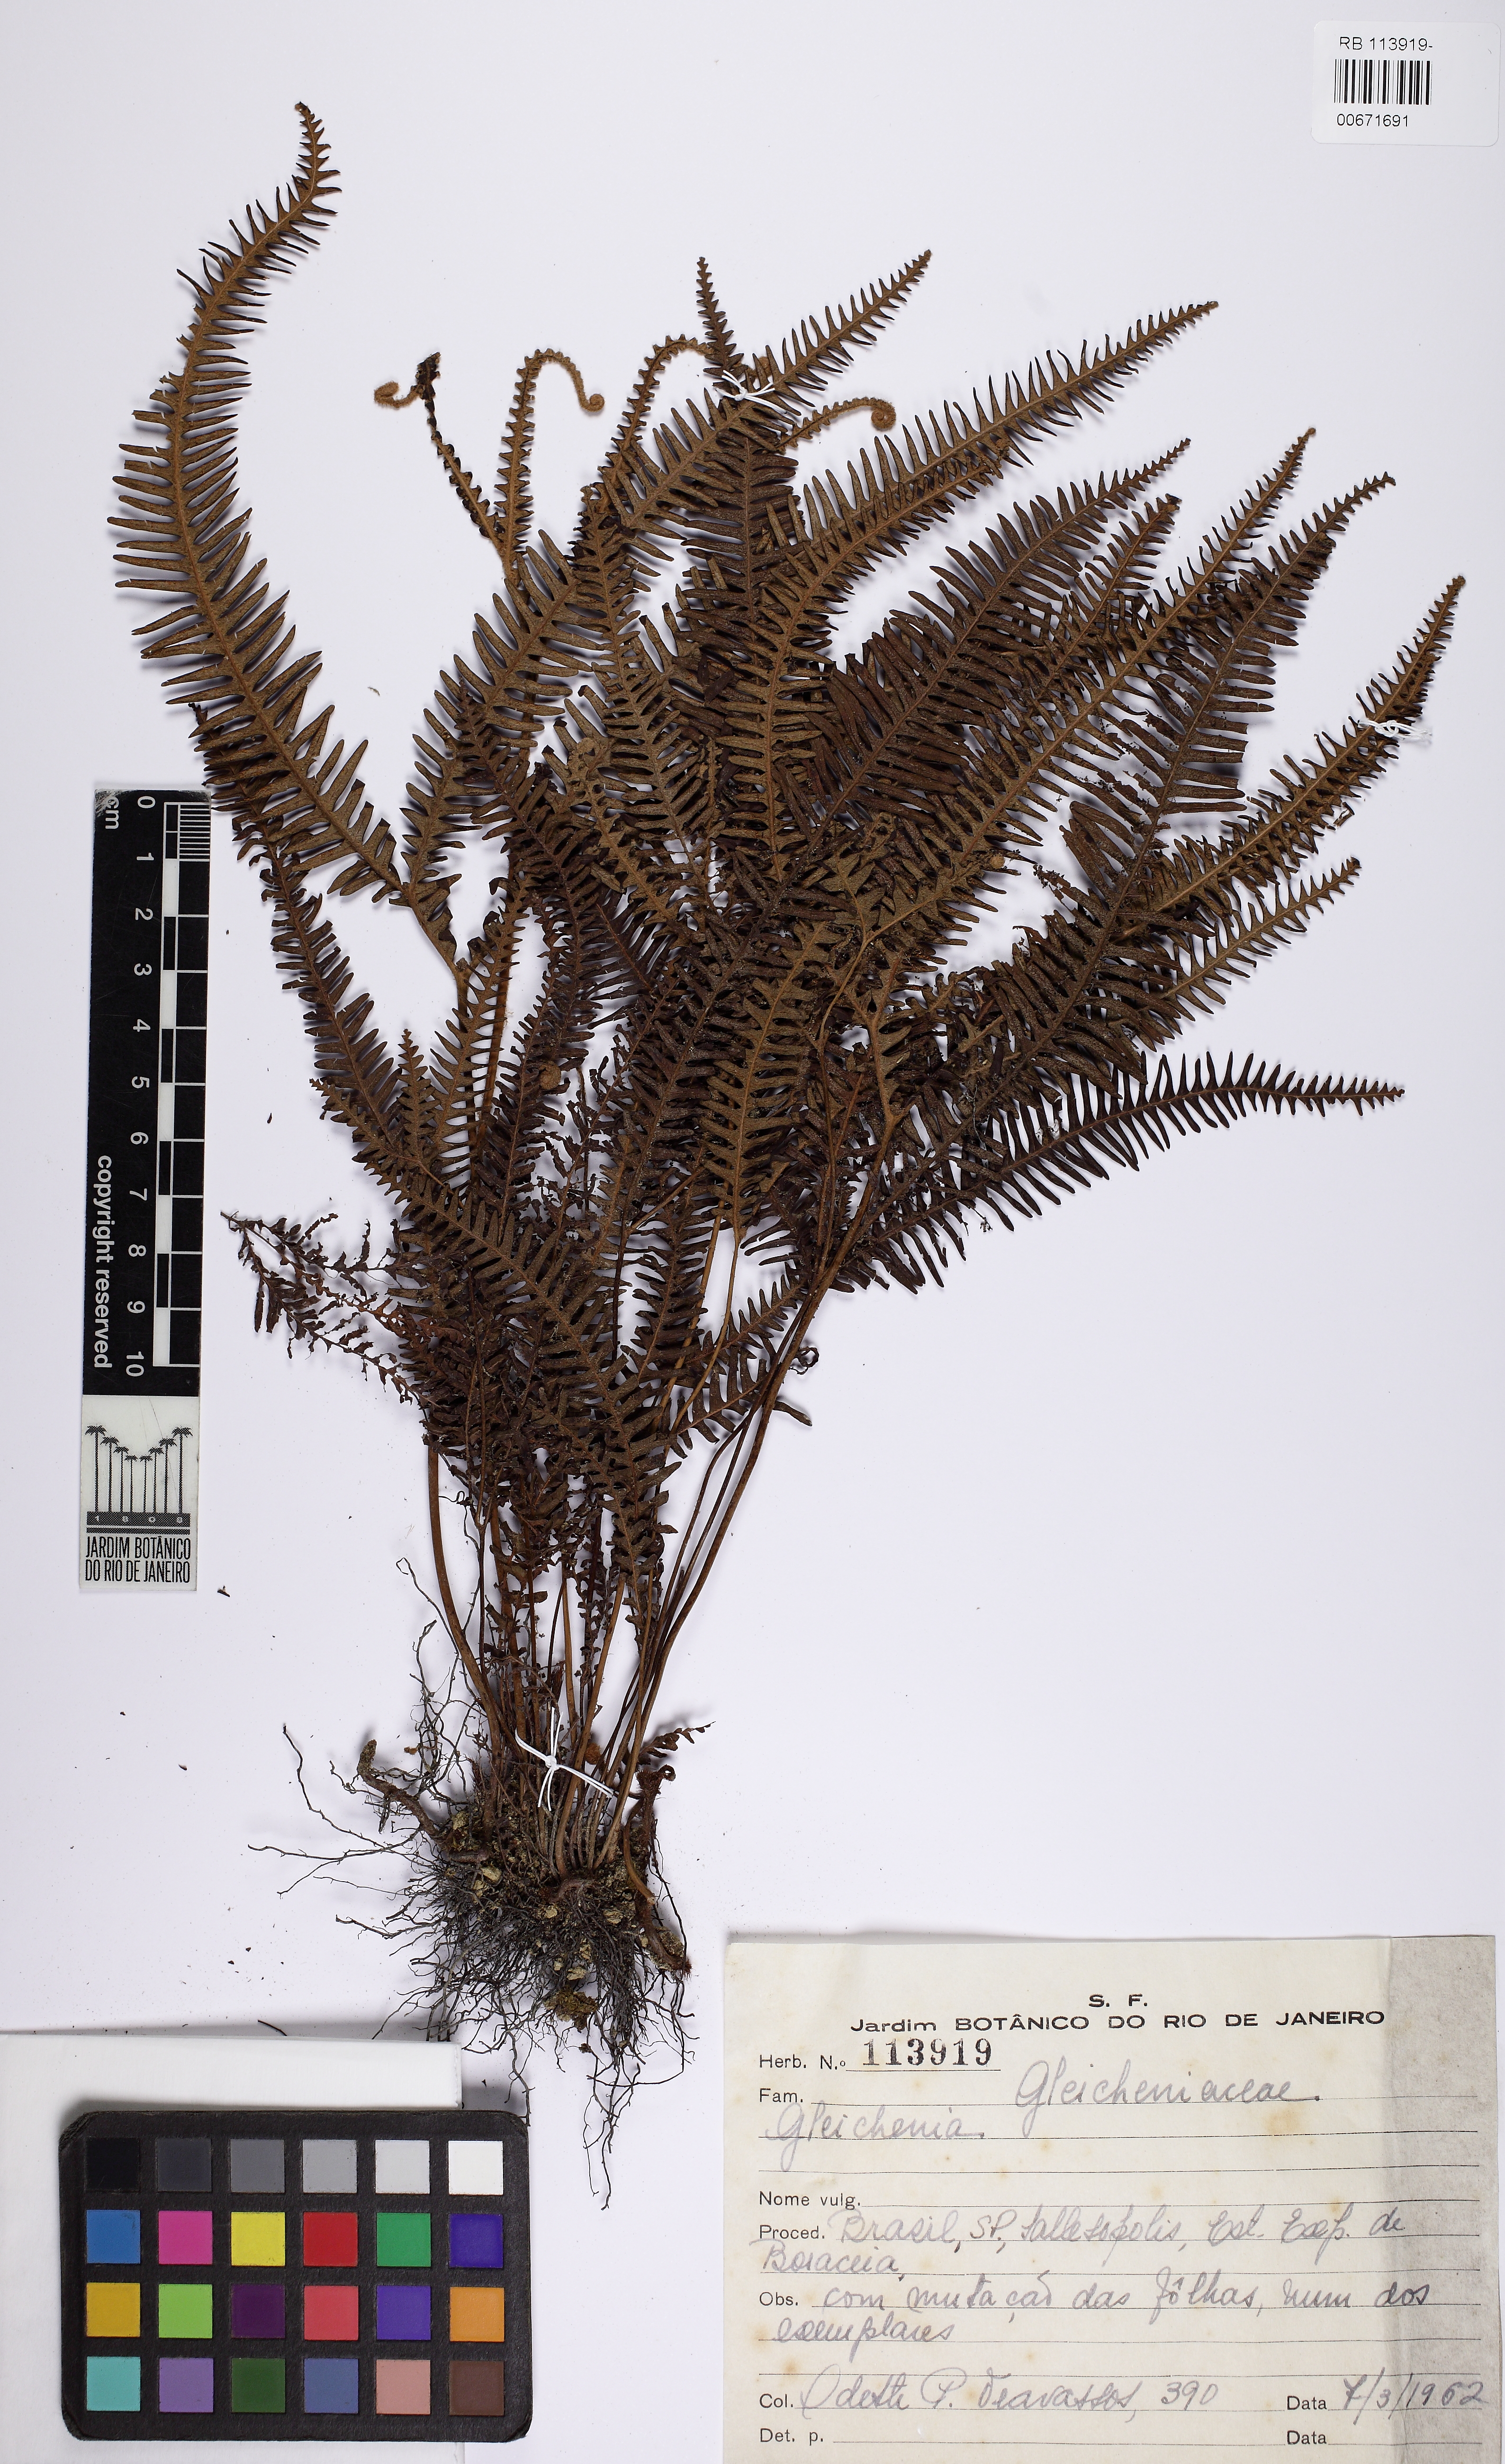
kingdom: Plantae
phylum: Tracheophyta
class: Polypodiopsida
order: Gleicheniales
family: Gleicheniaceae
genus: Sticherus
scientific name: Sticherus bifidus
